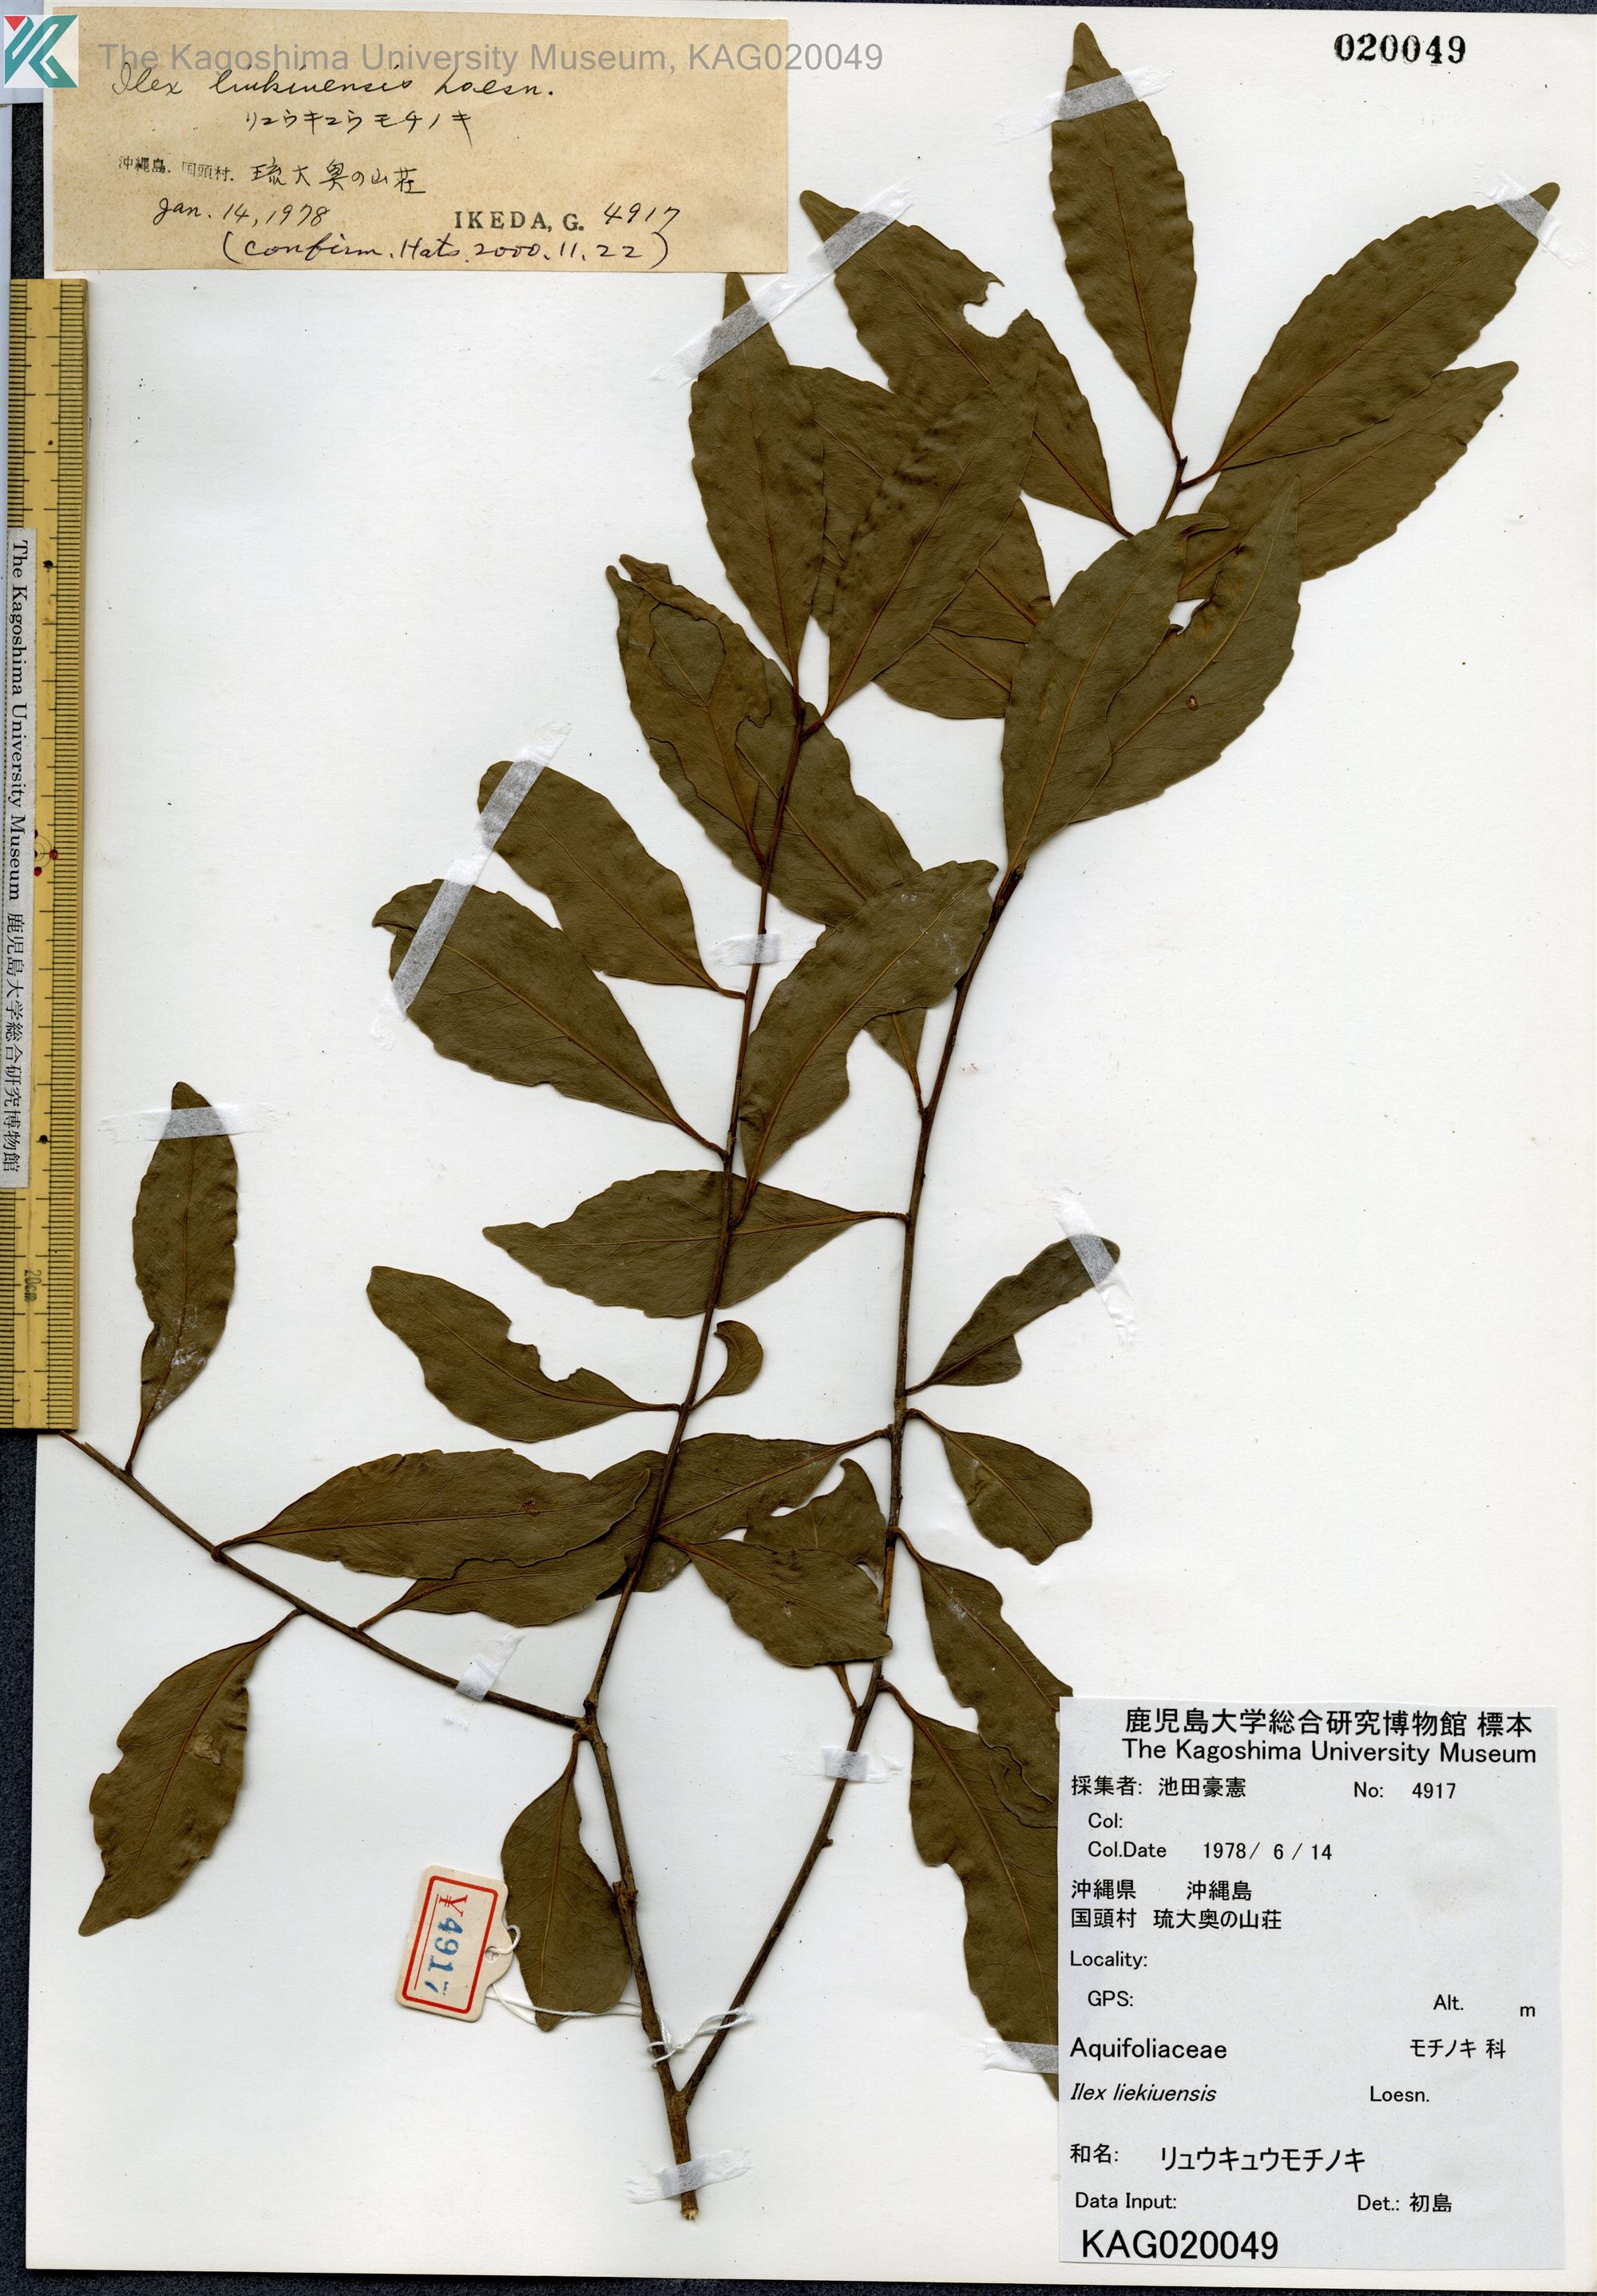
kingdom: Plantae
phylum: Tracheophyta
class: Magnoliopsida
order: Aquifoliales
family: Aquifoliaceae
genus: Ilex
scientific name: Ilex liukiuensis
